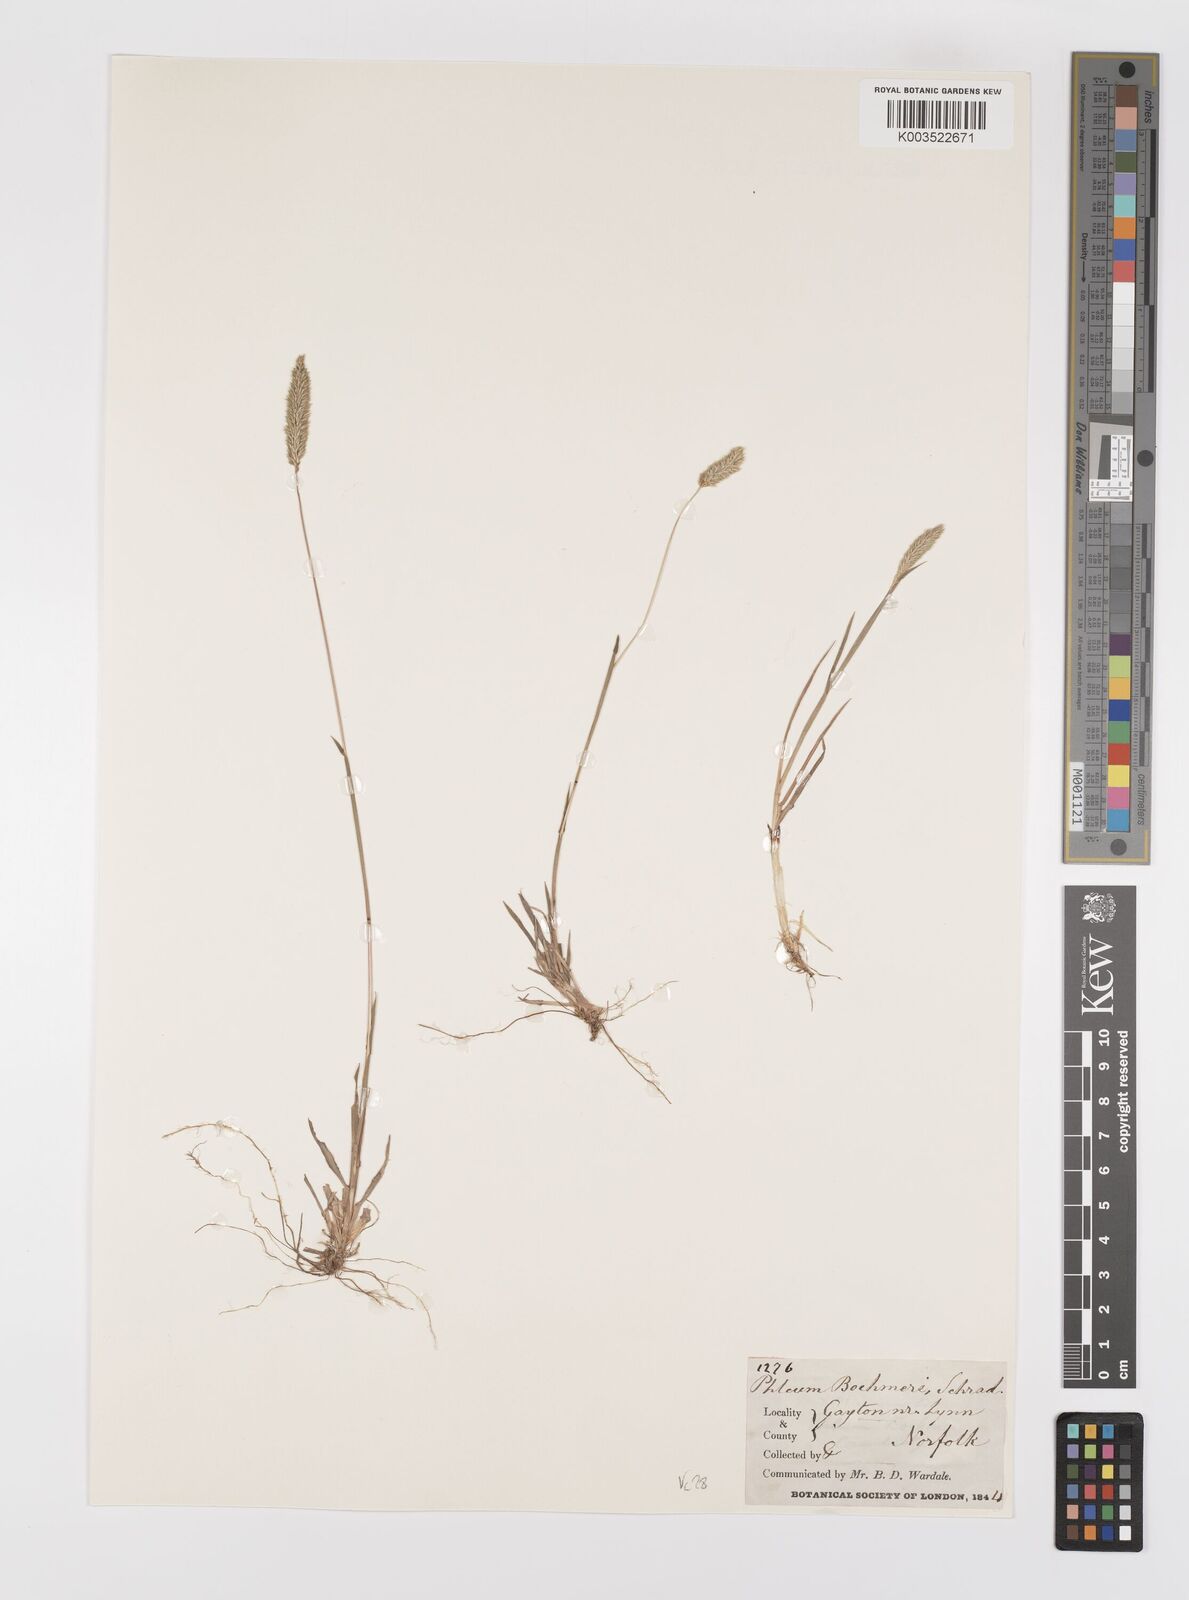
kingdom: Plantae
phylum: Tracheophyta
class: Liliopsida
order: Poales
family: Poaceae
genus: Phleum
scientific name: Phleum phleoides
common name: Purple-stem cat's-tail
